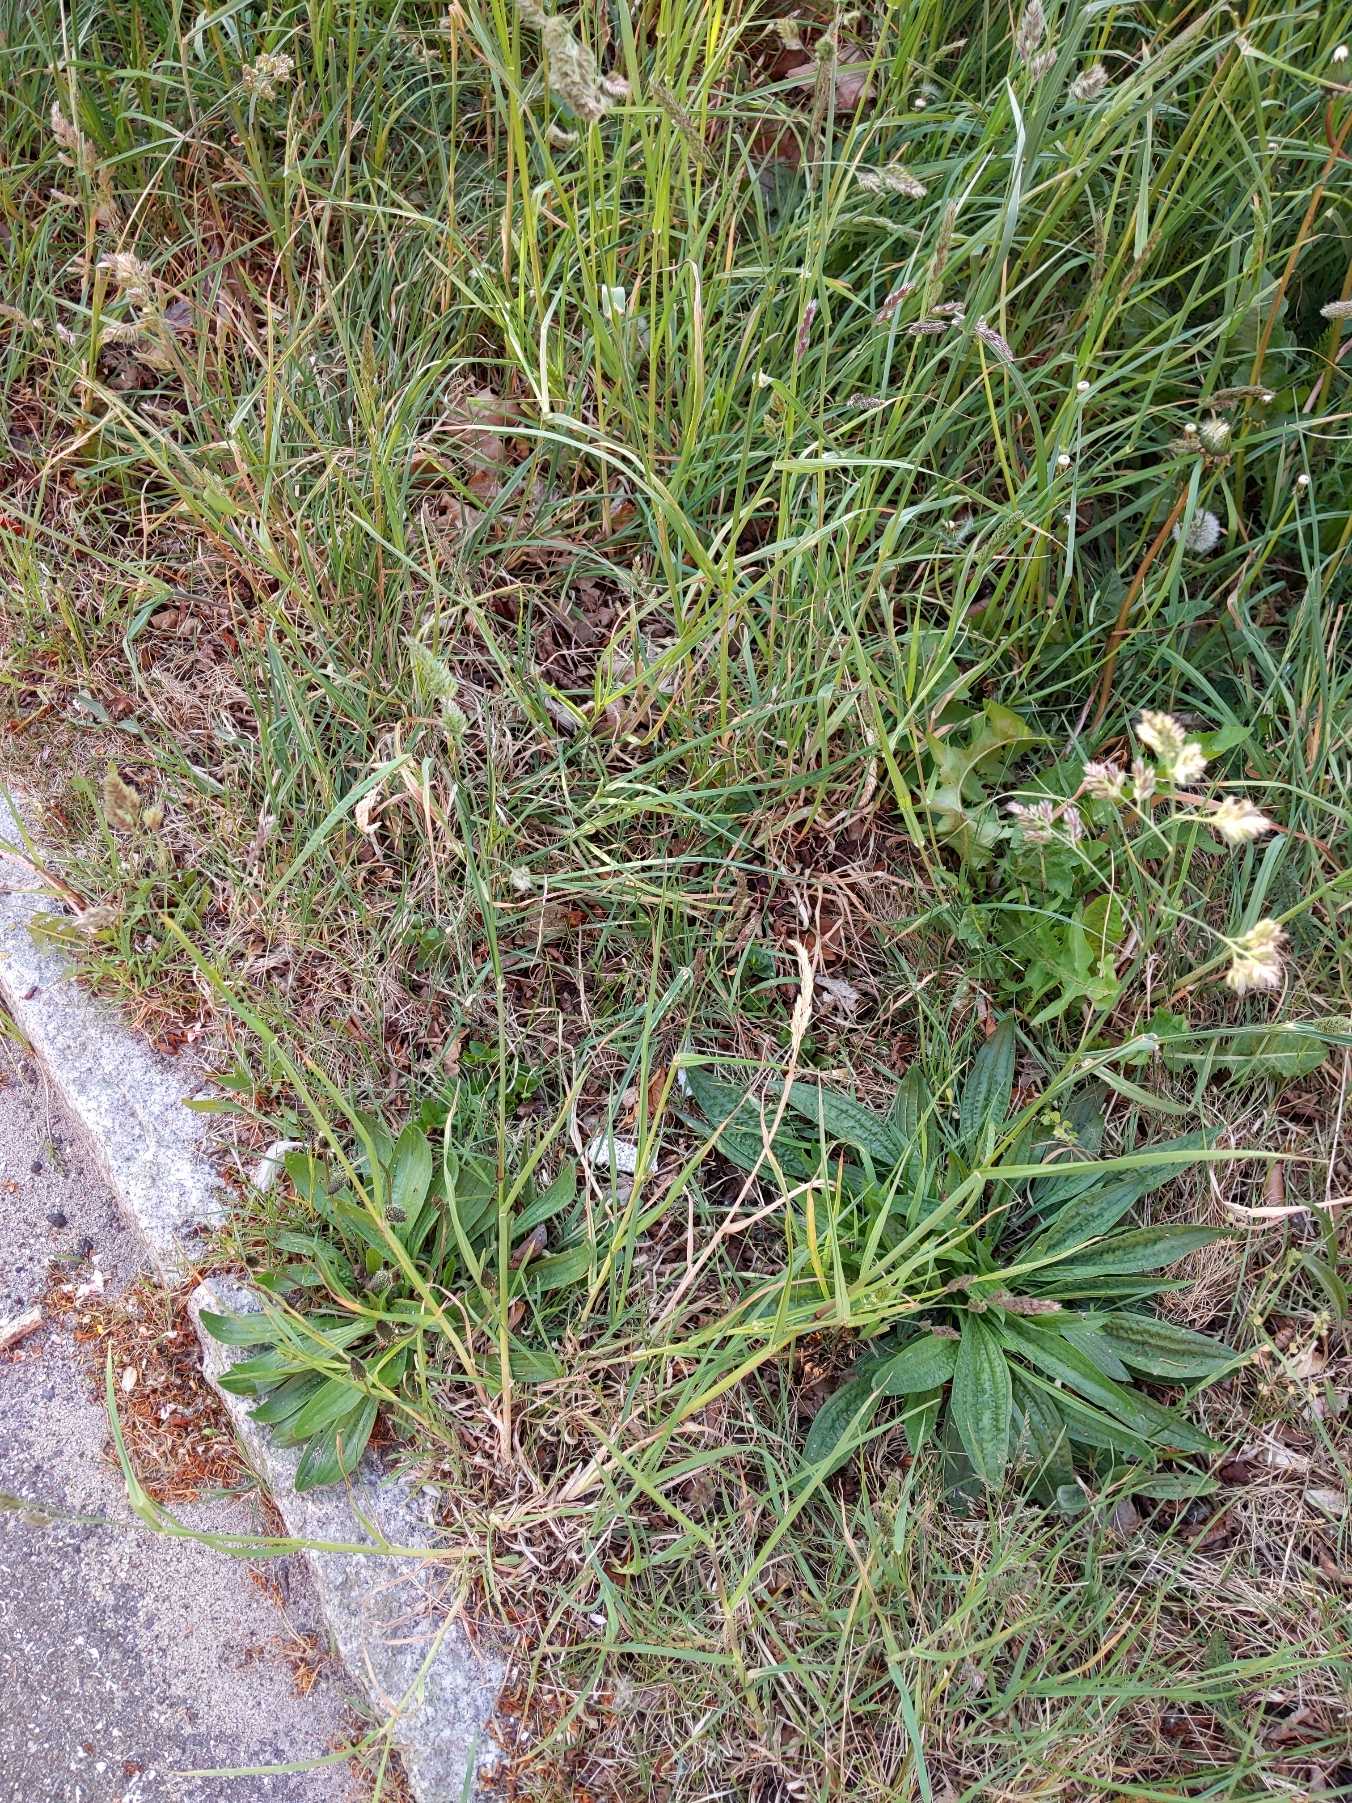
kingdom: Plantae
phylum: Tracheophyta
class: Liliopsida
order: Poales
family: Poaceae
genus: Dactylis
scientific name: Dactylis glomerata
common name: Almindelig hundegræs
